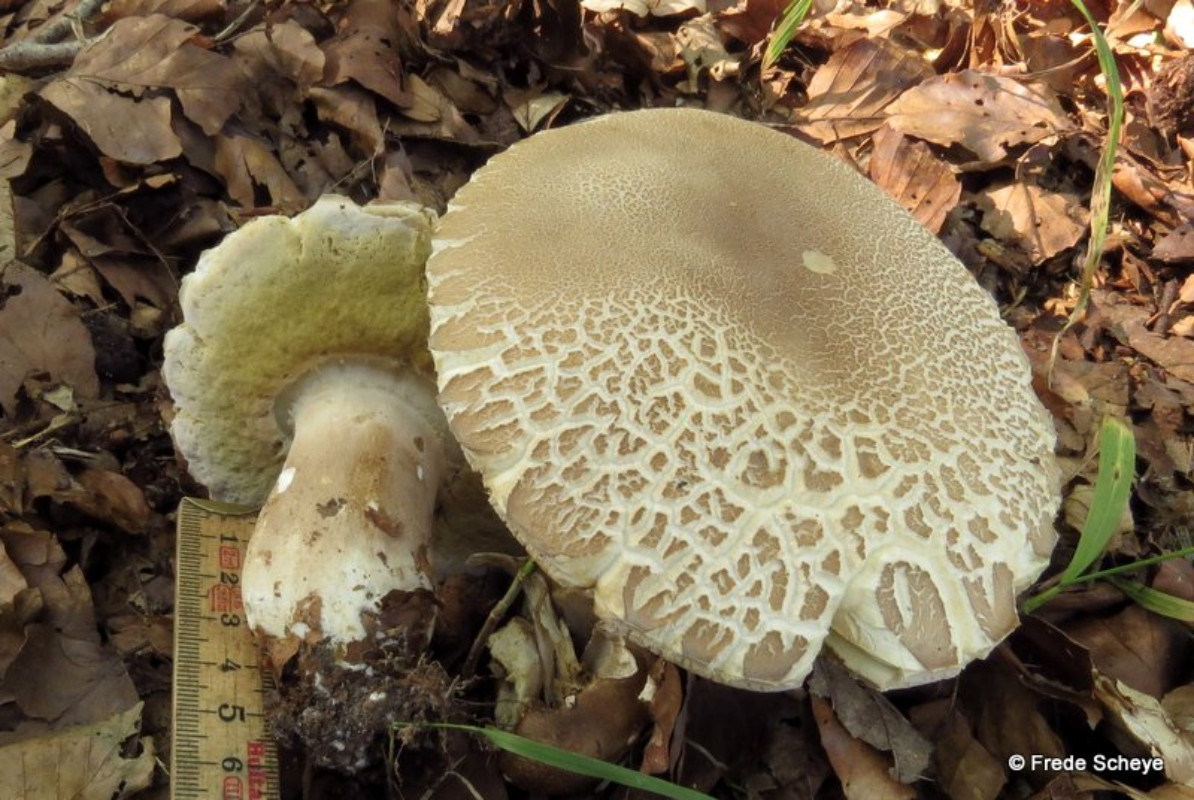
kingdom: Fungi
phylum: Basidiomycota
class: Agaricomycetes
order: Boletales
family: Boletaceae
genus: Boletus
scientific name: Boletus reticulatus
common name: sommer-rørhat
